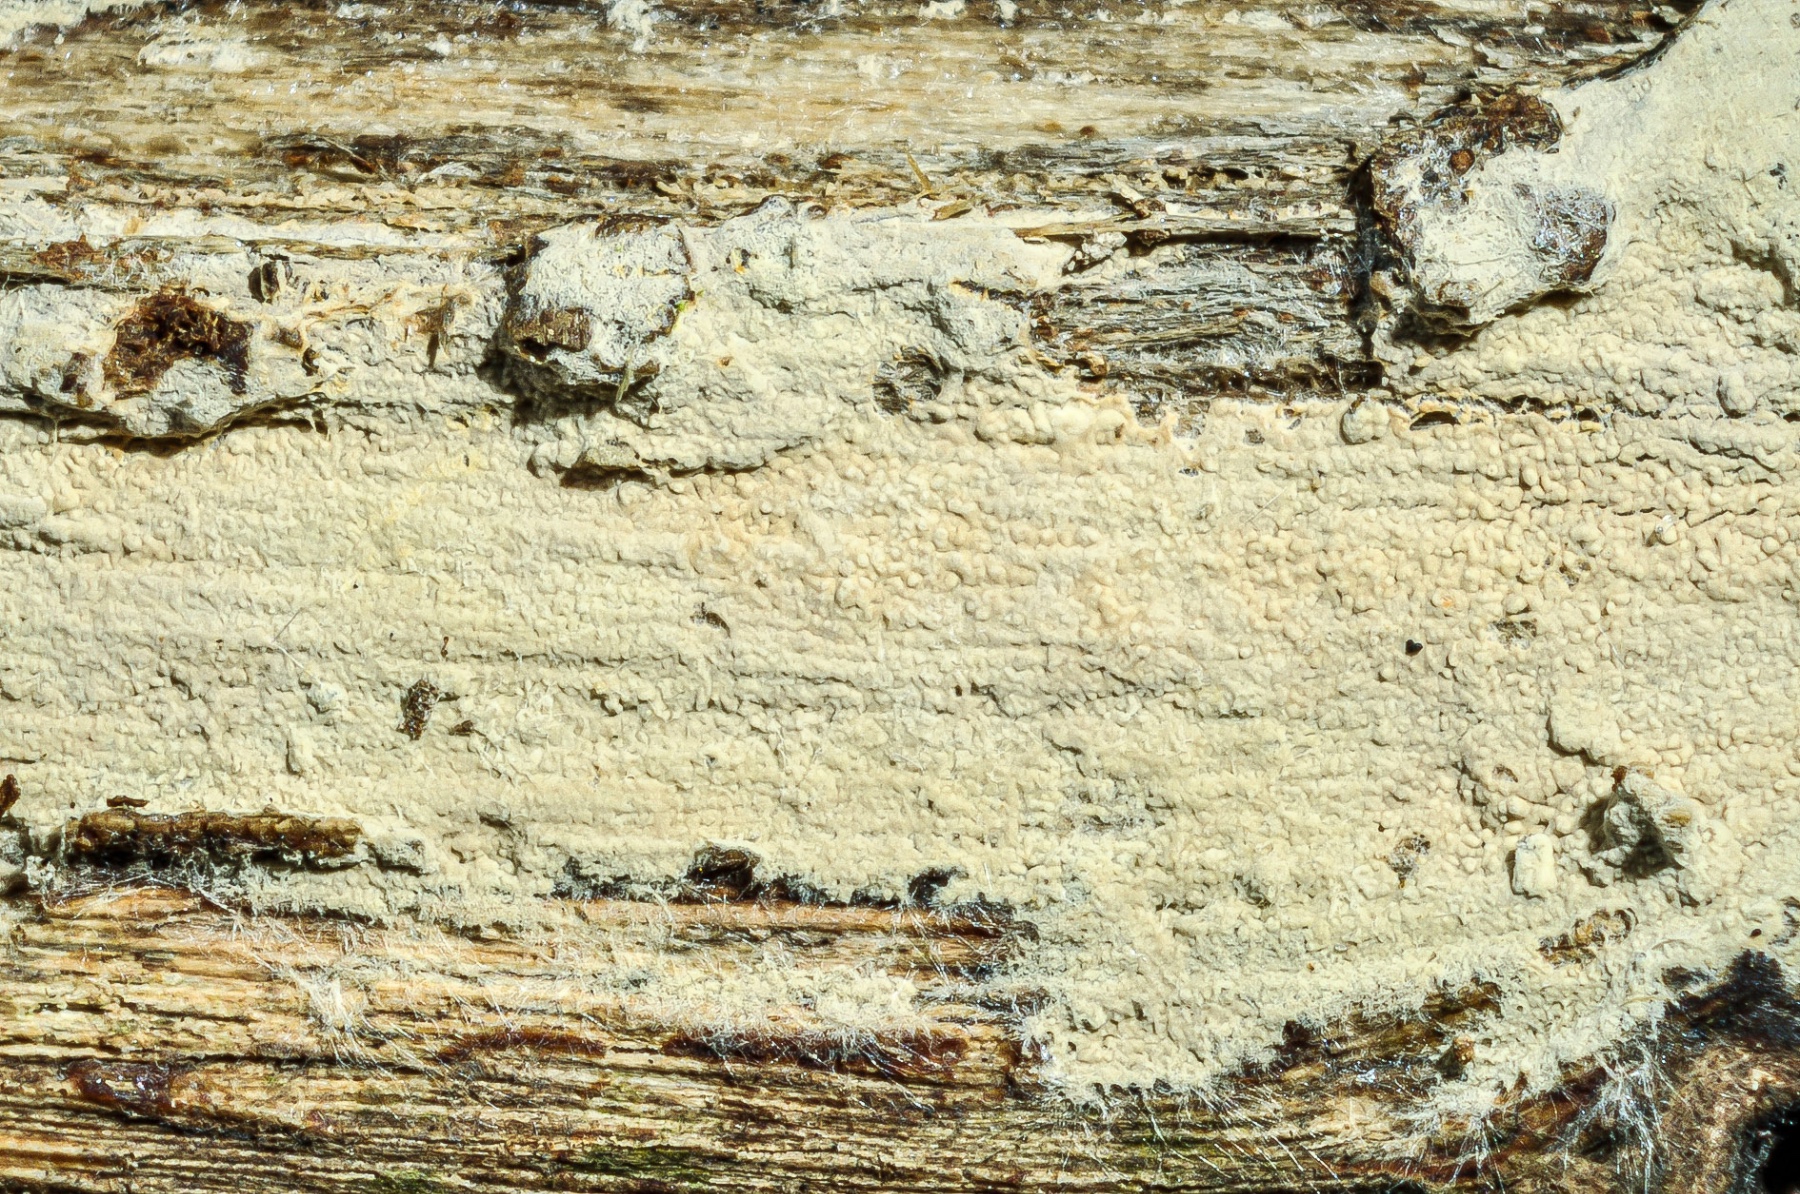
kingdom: Fungi
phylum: Basidiomycota
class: Agaricomycetes
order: Atheliales
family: Atheliaceae
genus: Tretomyces
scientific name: Tretomyces lutescens
